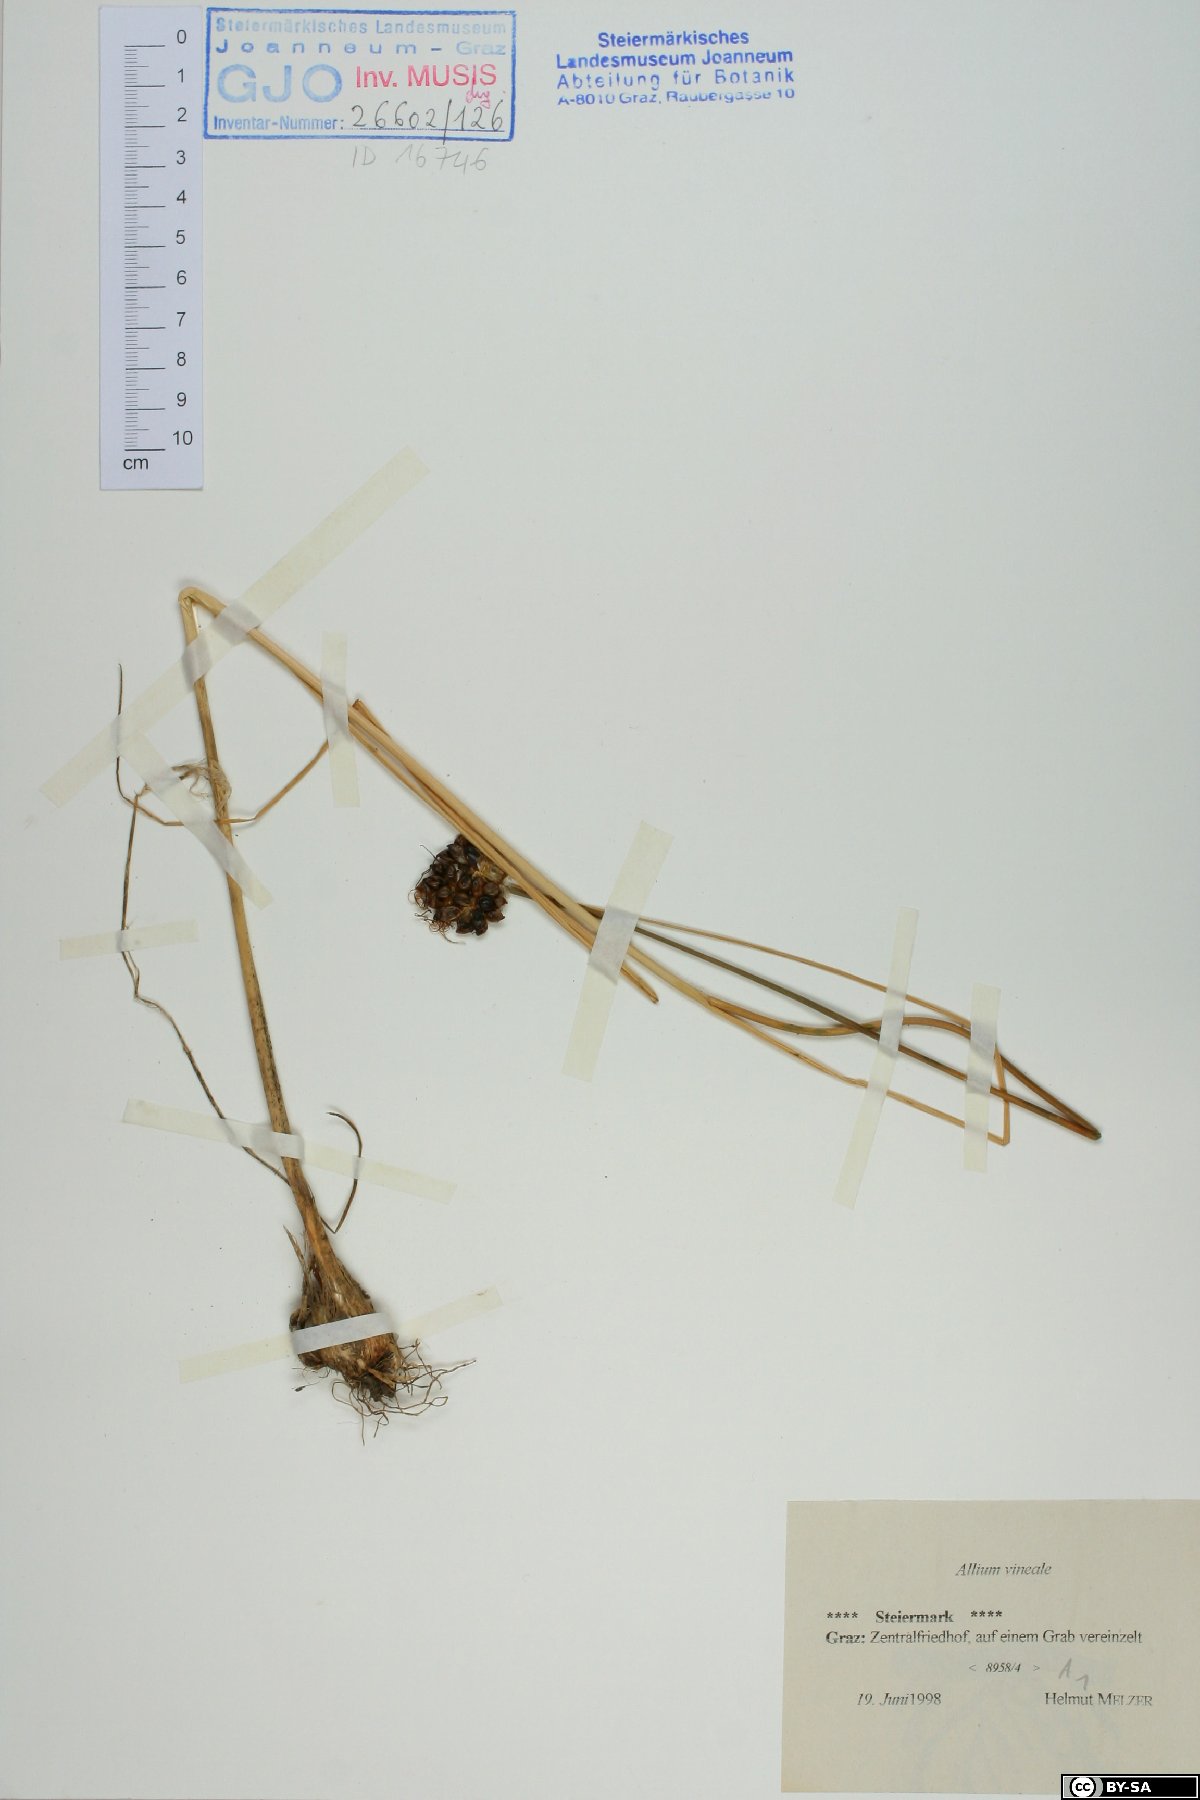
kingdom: Plantae
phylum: Tracheophyta
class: Liliopsida
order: Asparagales
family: Amaryllidaceae
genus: Allium
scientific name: Allium vineale
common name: Crow garlic
